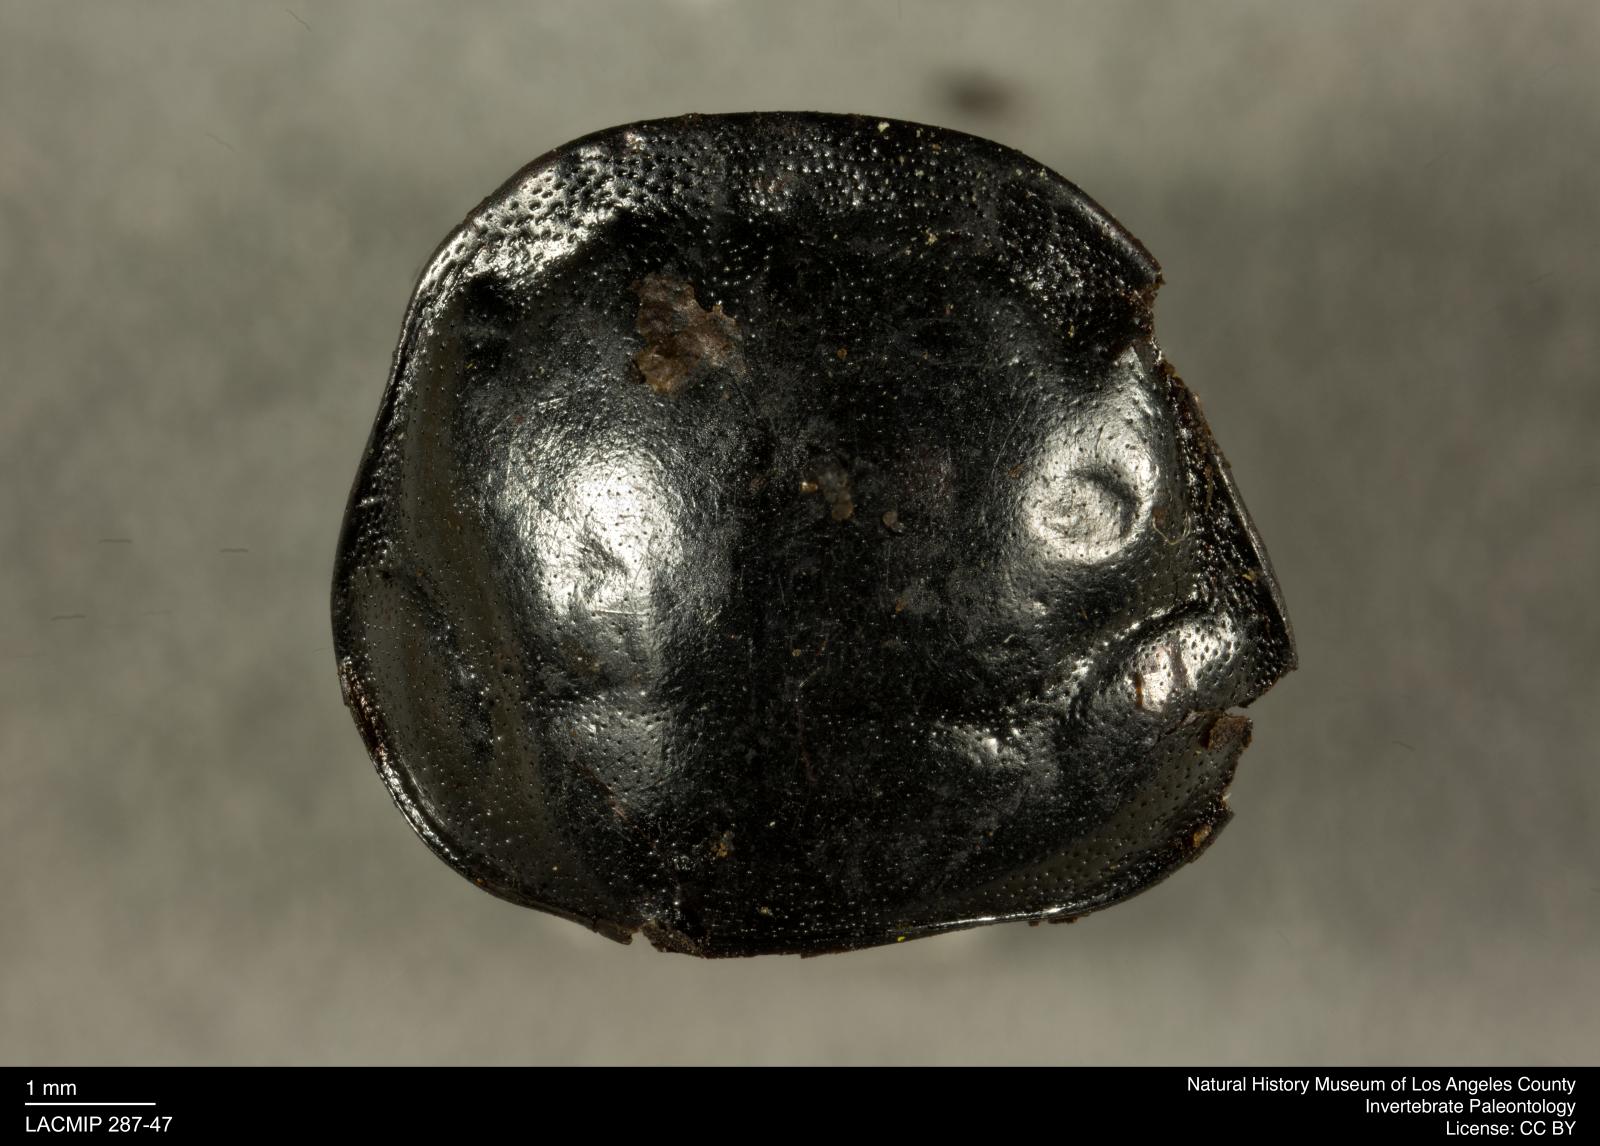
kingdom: Animalia
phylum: Arthropoda
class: Insecta
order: Coleoptera
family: Staphylinidae
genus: Nicrophorus
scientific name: Nicrophorus marginatus
